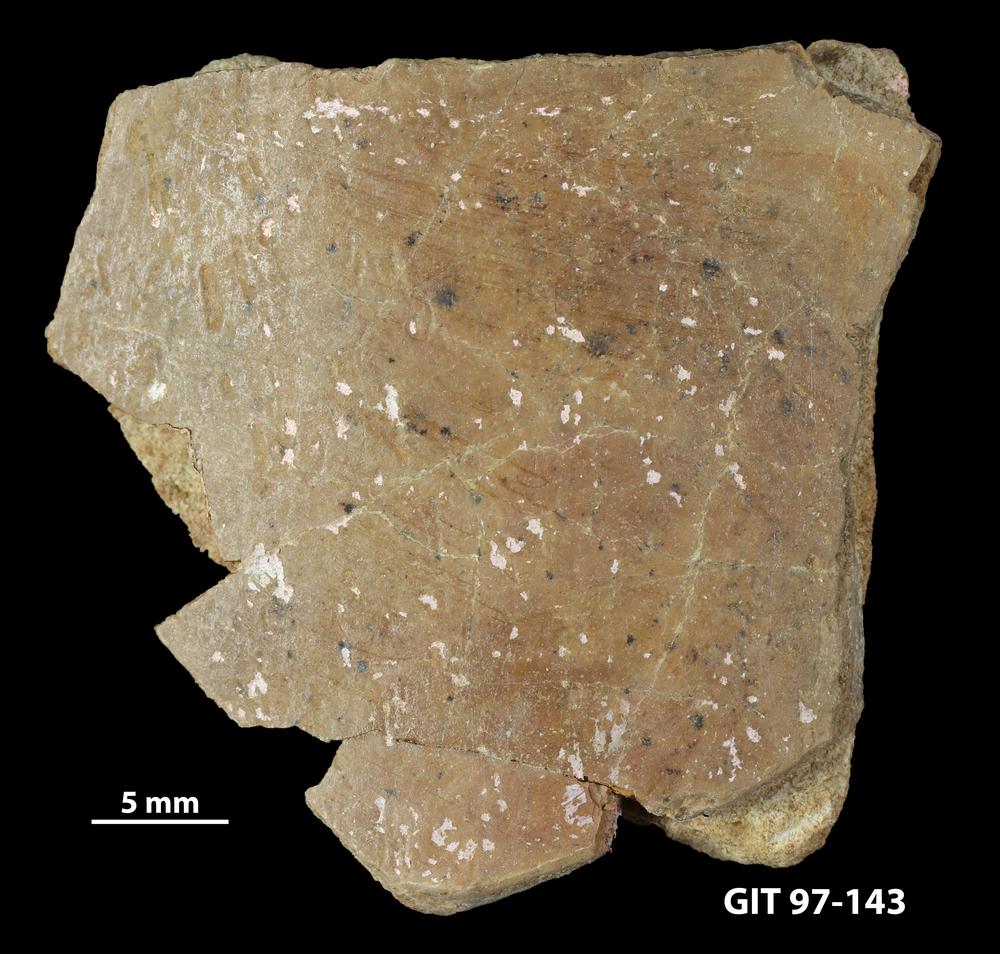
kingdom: Animalia
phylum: Chordata
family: Holonematidae
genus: Holonema
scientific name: Holonema
